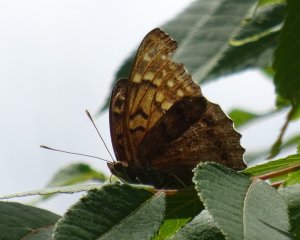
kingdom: Animalia
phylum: Arthropoda
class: Insecta
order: Lepidoptera
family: Nymphalidae
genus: Asterocampa
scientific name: Asterocampa clyton
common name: Tawny Emperor
